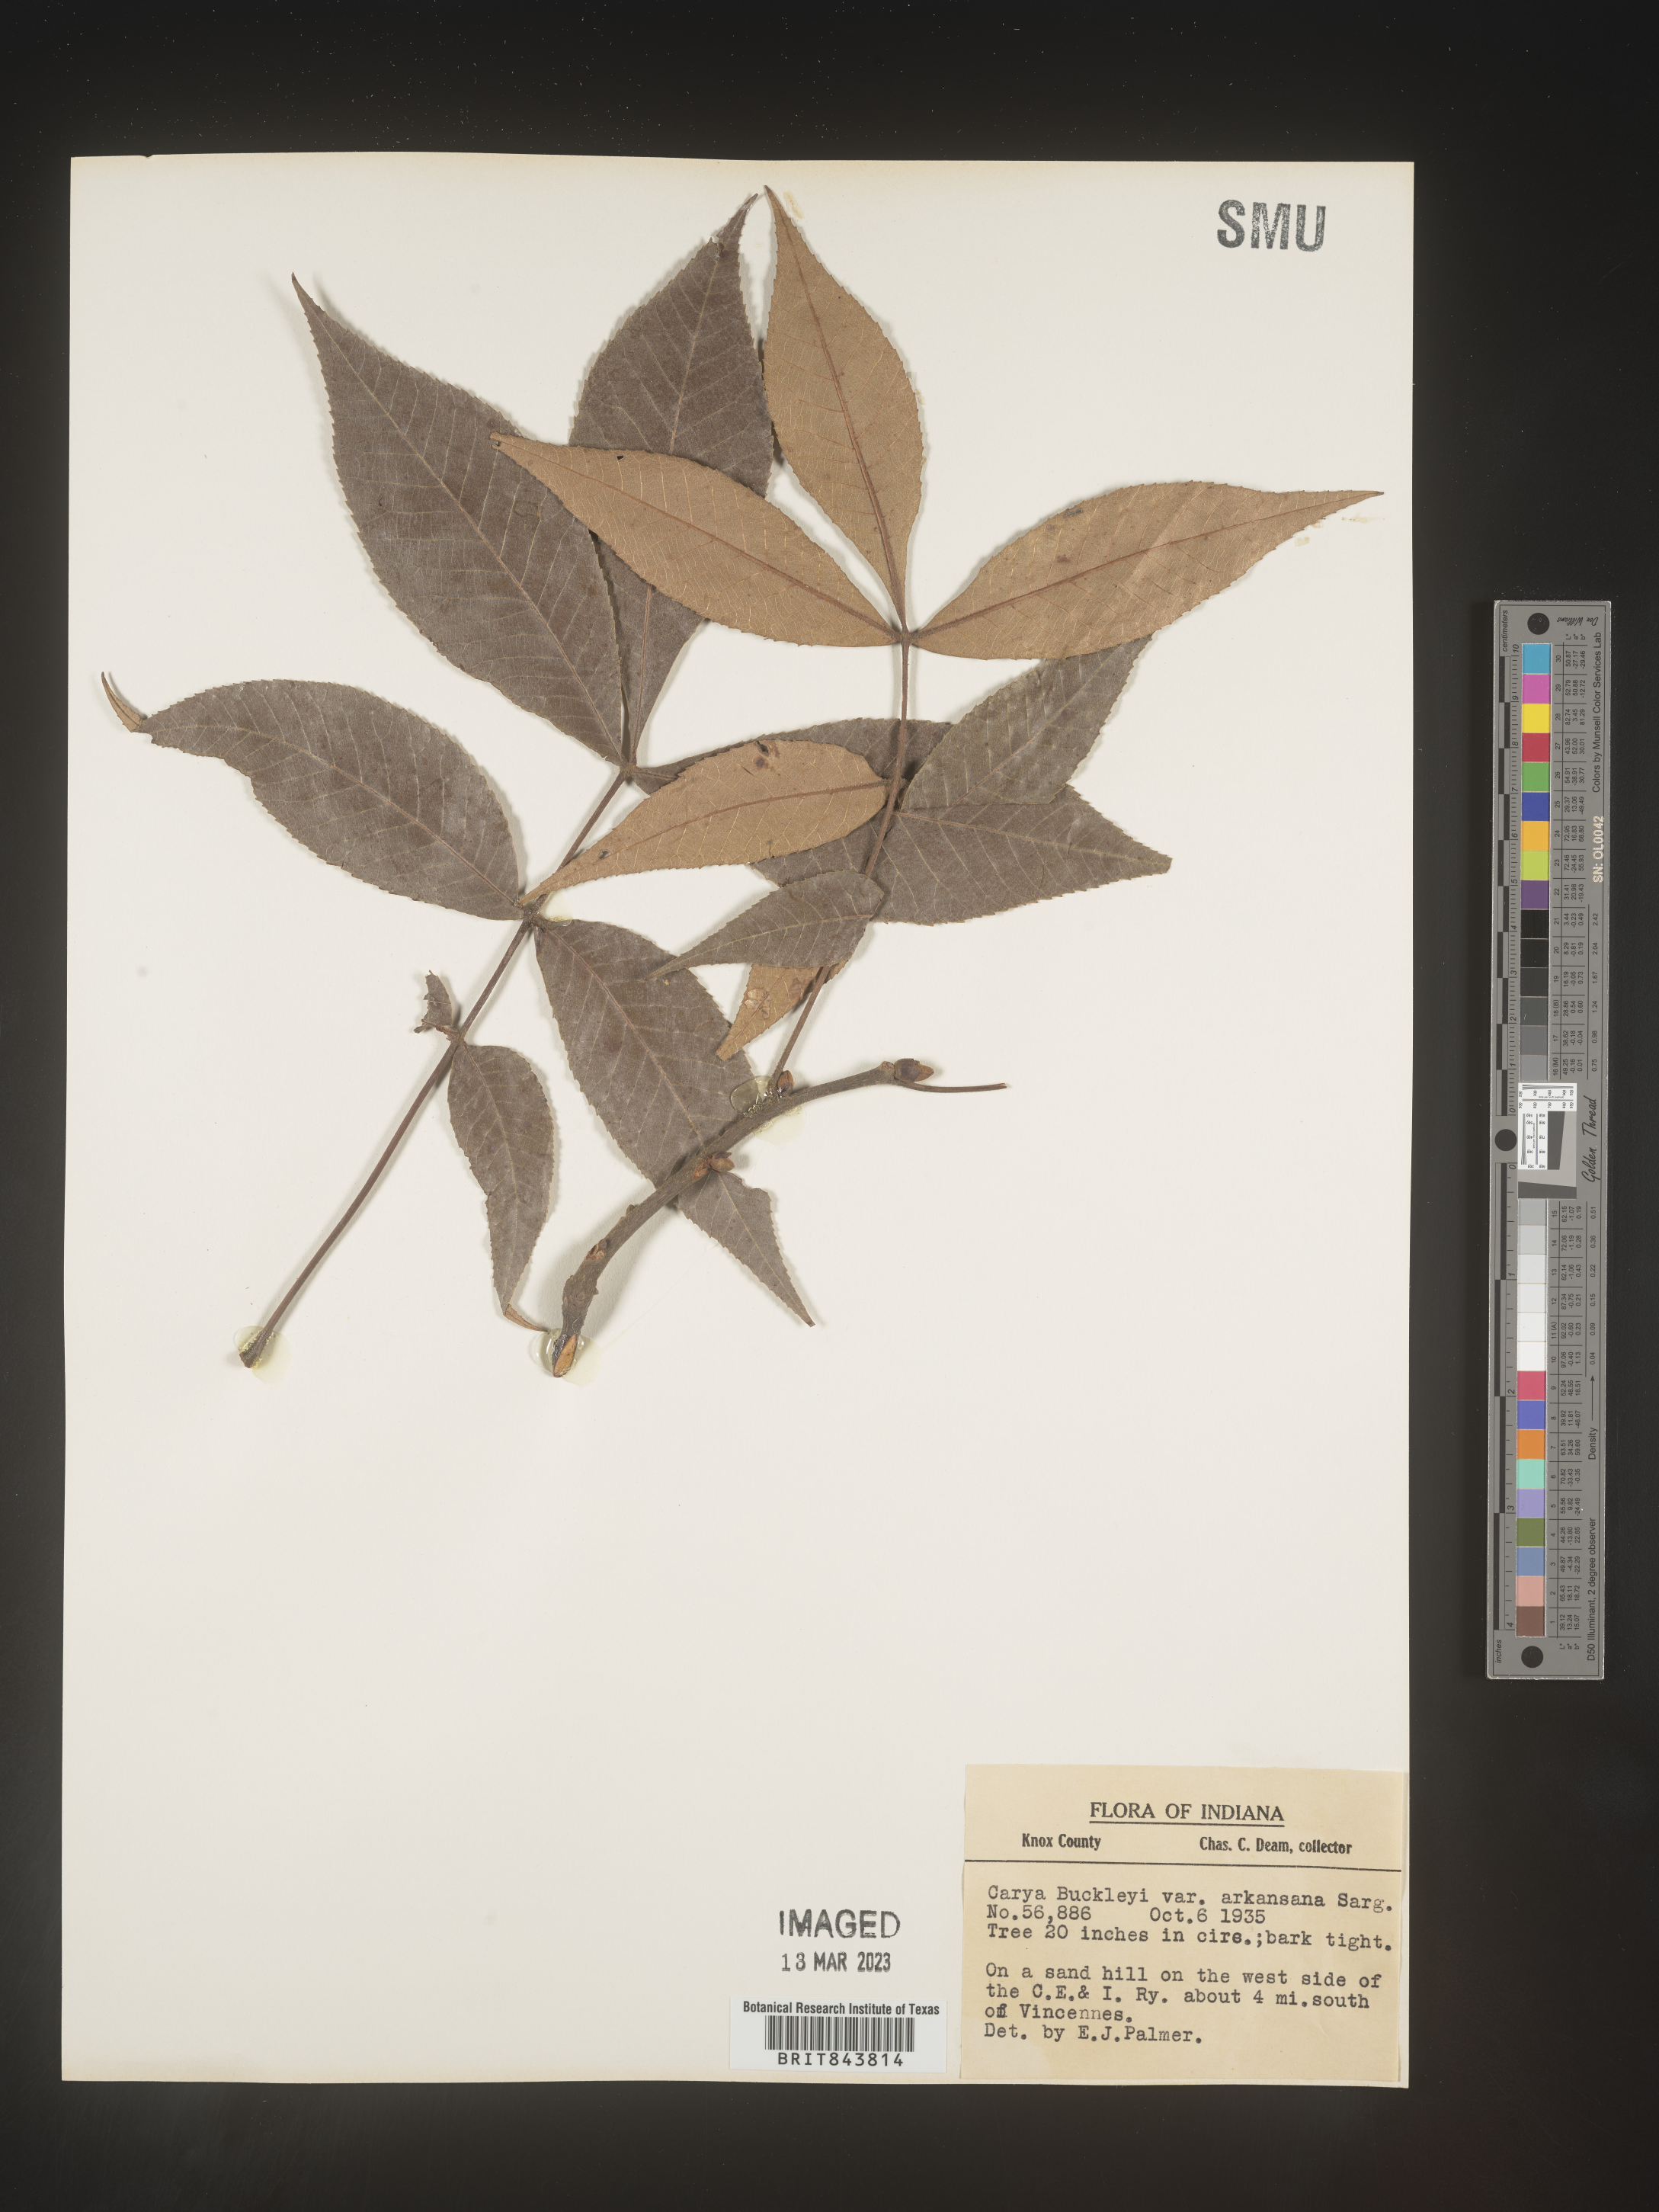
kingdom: Plantae
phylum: Tracheophyta
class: Magnoliopsida
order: Fagales
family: Juglandaceae
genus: Carya
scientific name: Carya texana
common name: Black hickory
